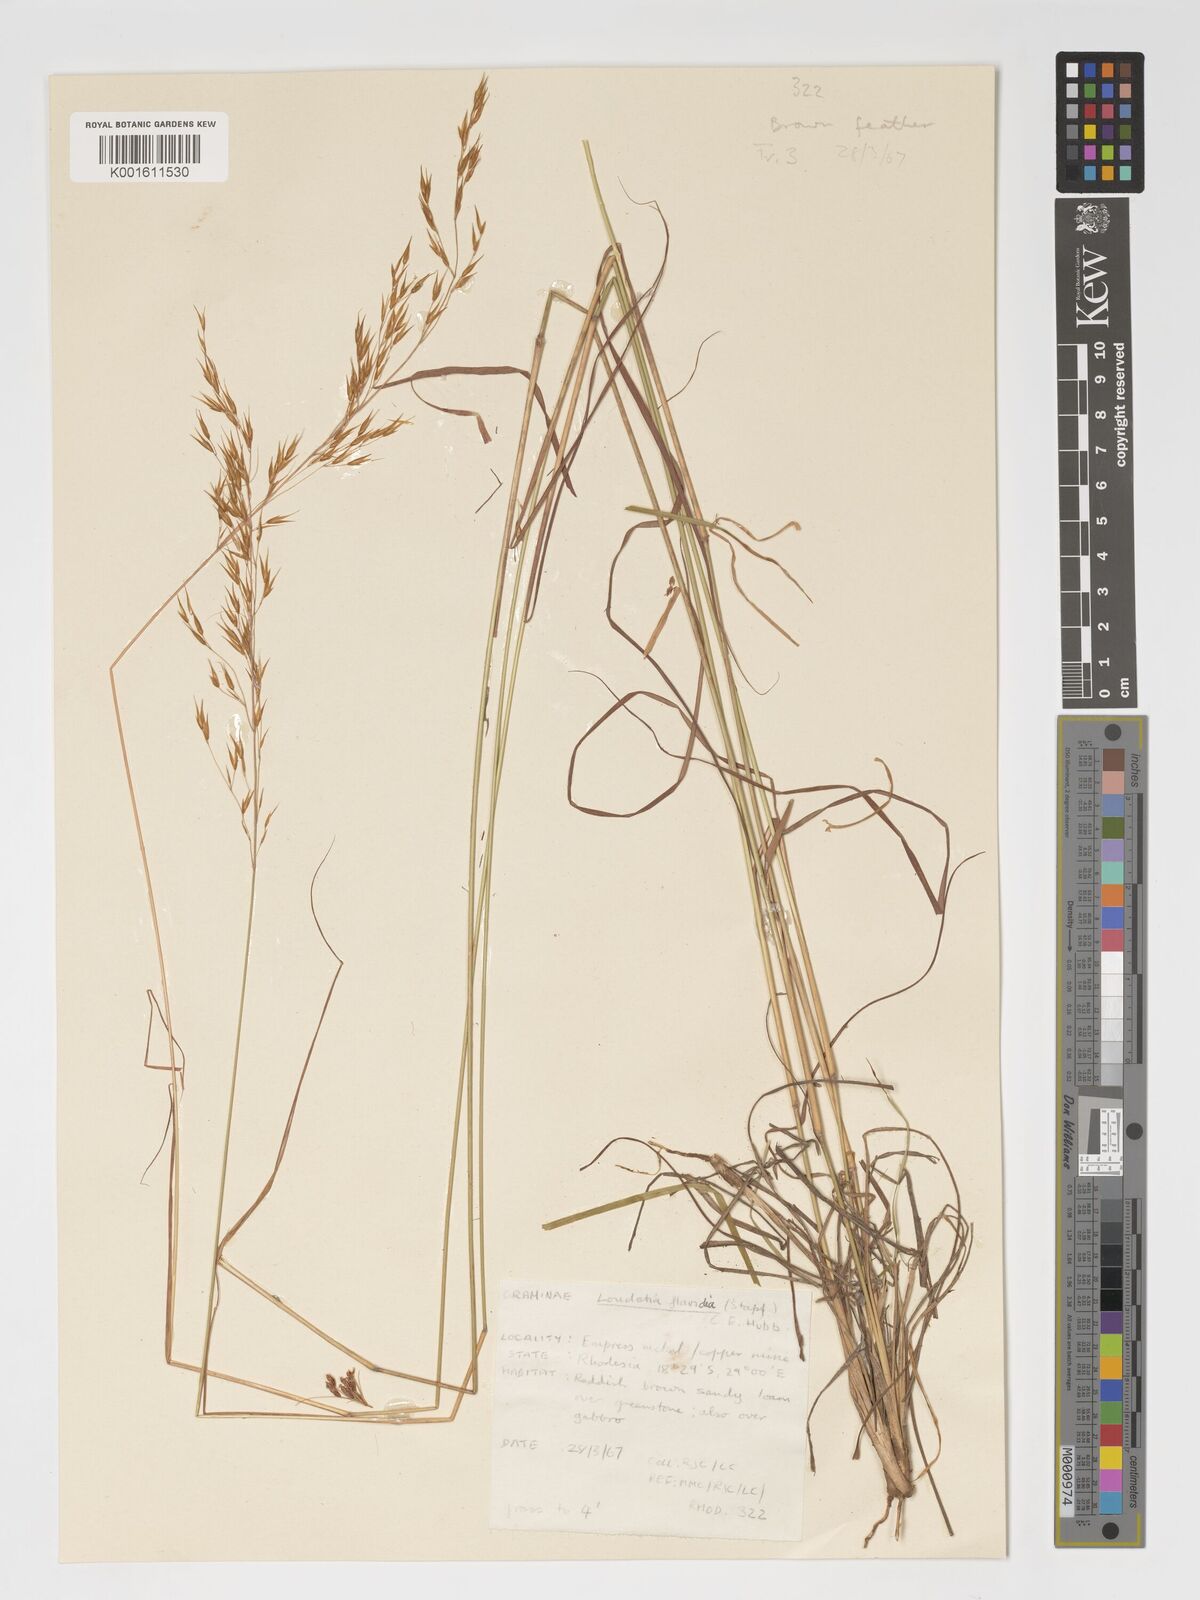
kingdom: Plantae
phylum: Tracheophyta
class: Liliopsida
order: Poales
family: Poaceae
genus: Loudetia
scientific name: Loudetia flavida
